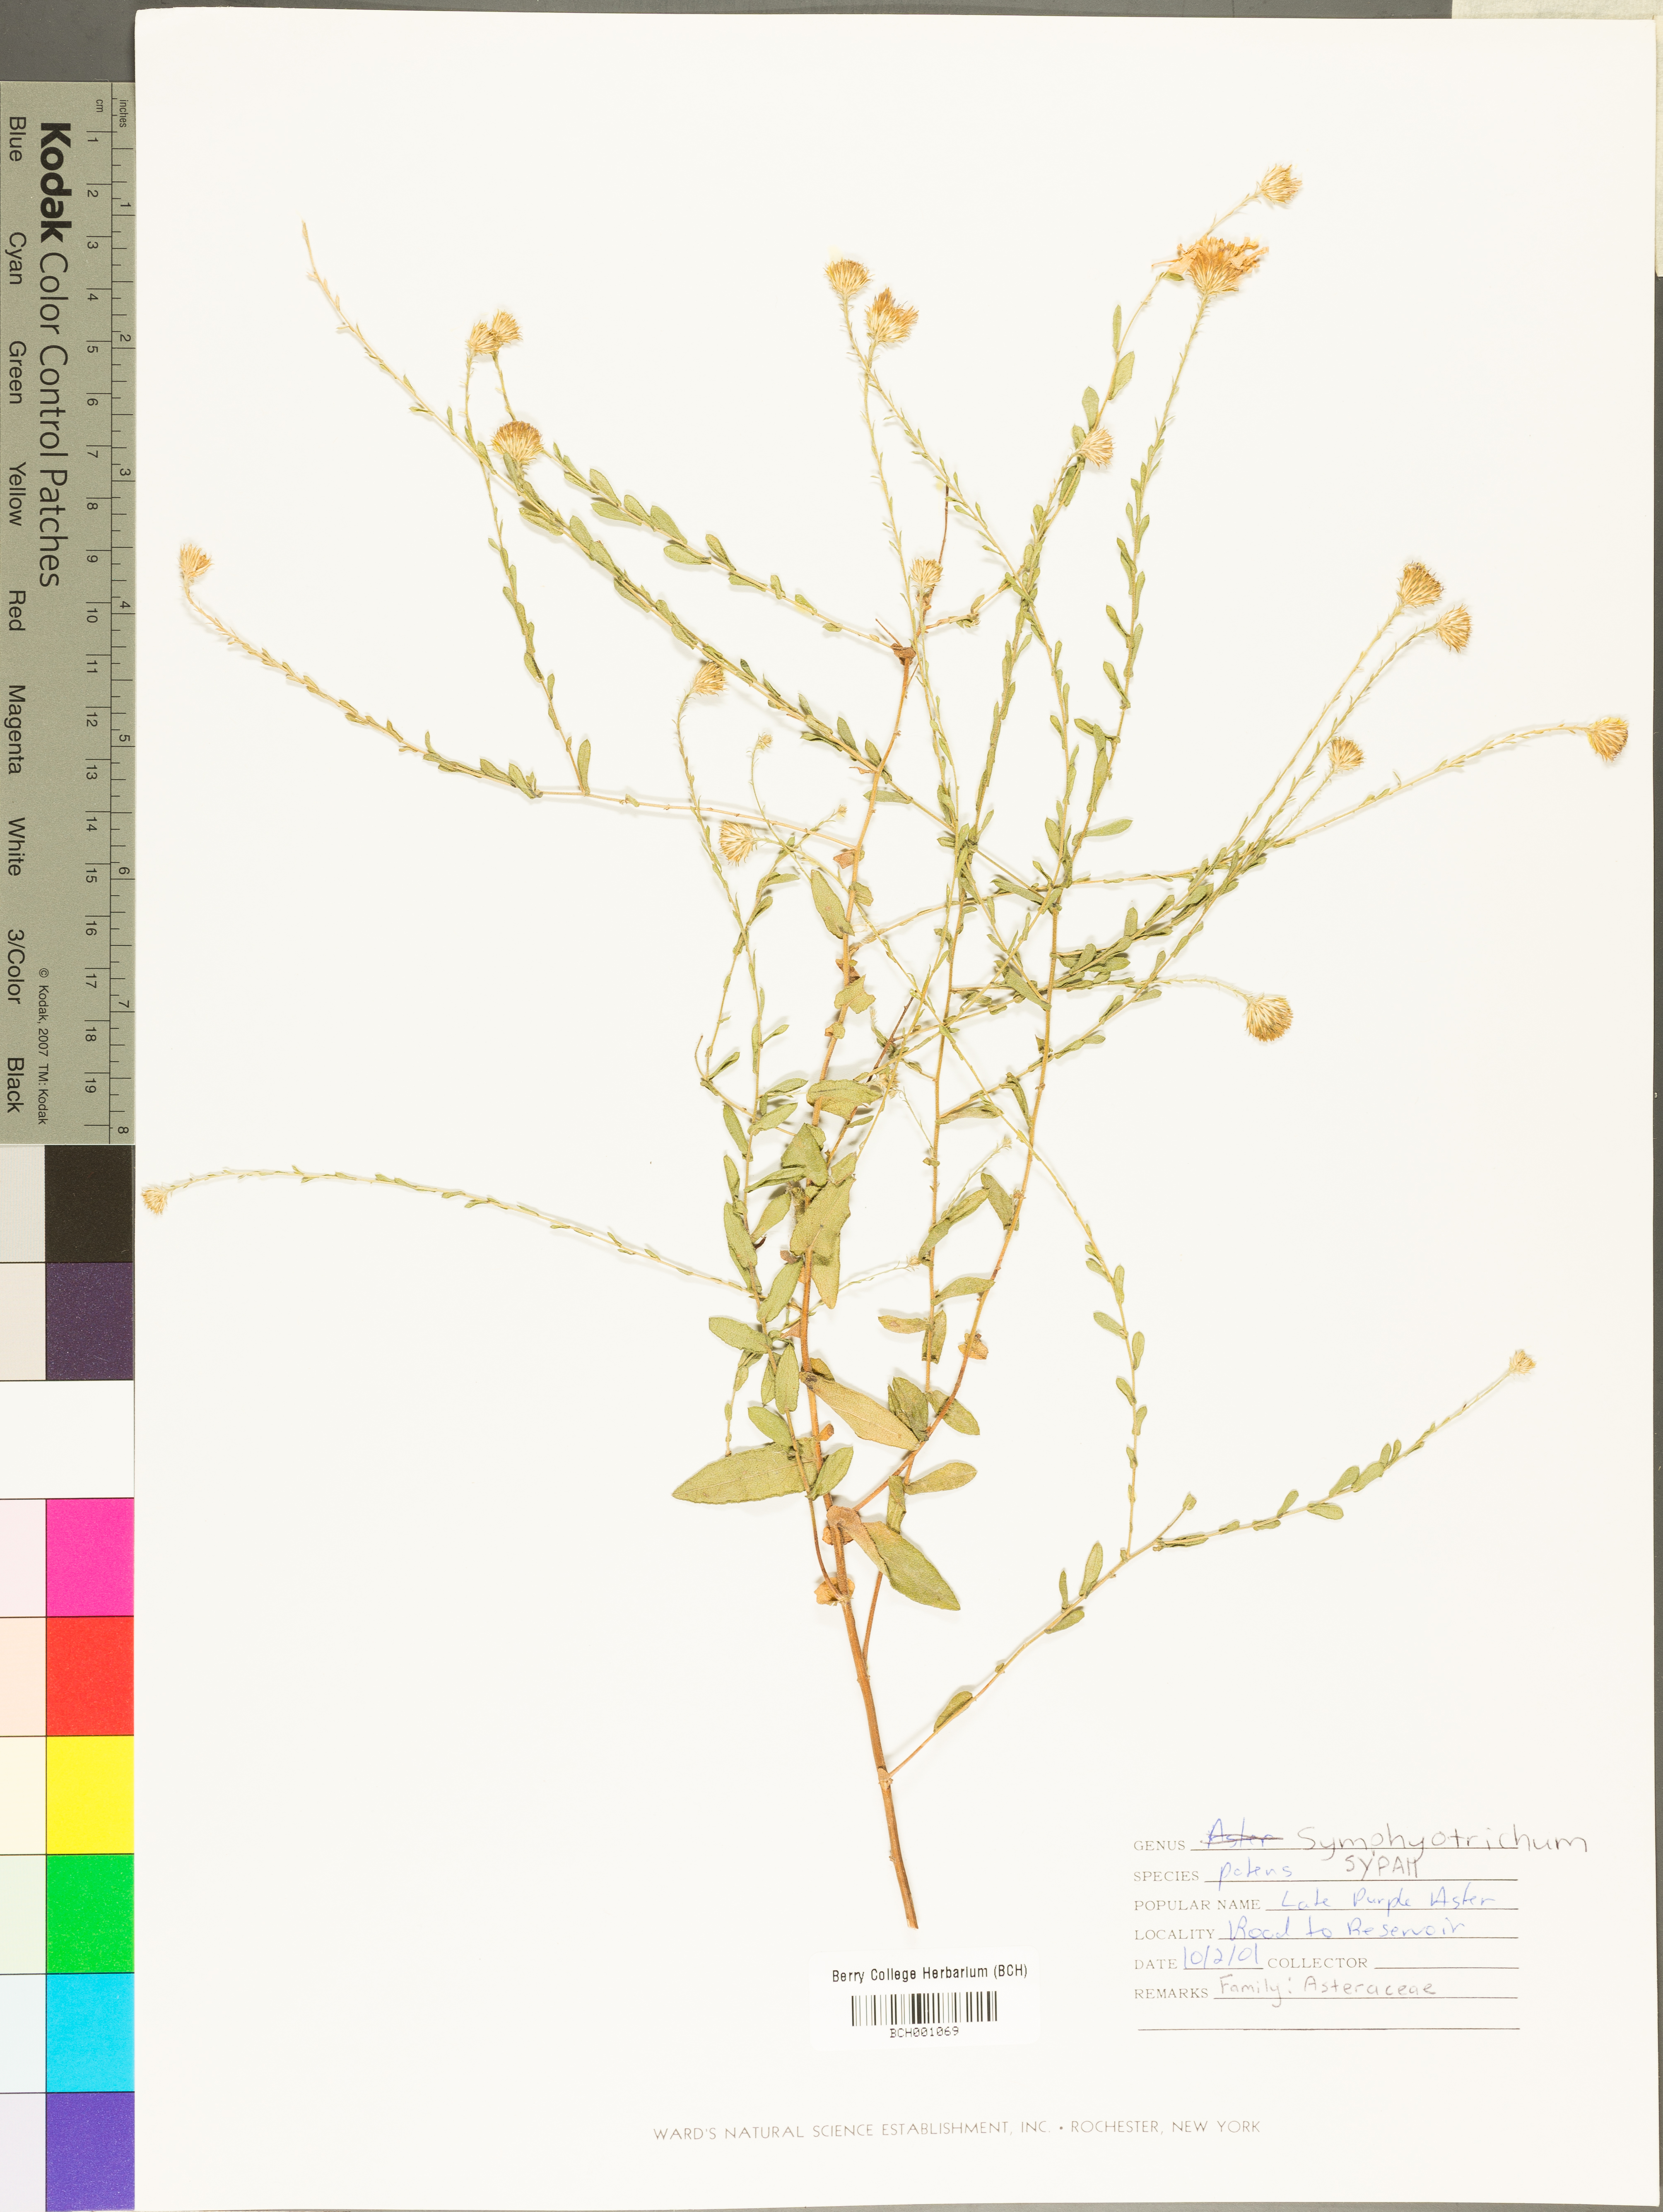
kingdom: Plantae
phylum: Tracheophyta
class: Magnoliopsida
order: Asterales
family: Asteraceae
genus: Symphyotrichum
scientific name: Symphyotrichum patens
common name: Late purple aster
